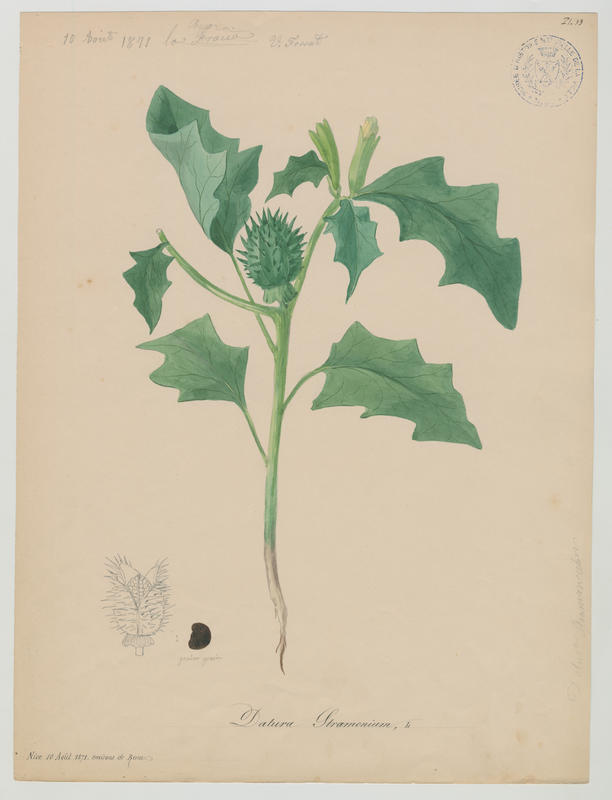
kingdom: Plantae
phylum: Tracheophyta
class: Magnoliopsida
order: Solanales
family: Solanaceae
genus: Datura
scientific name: Datura stramonium
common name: Thorn-apple
